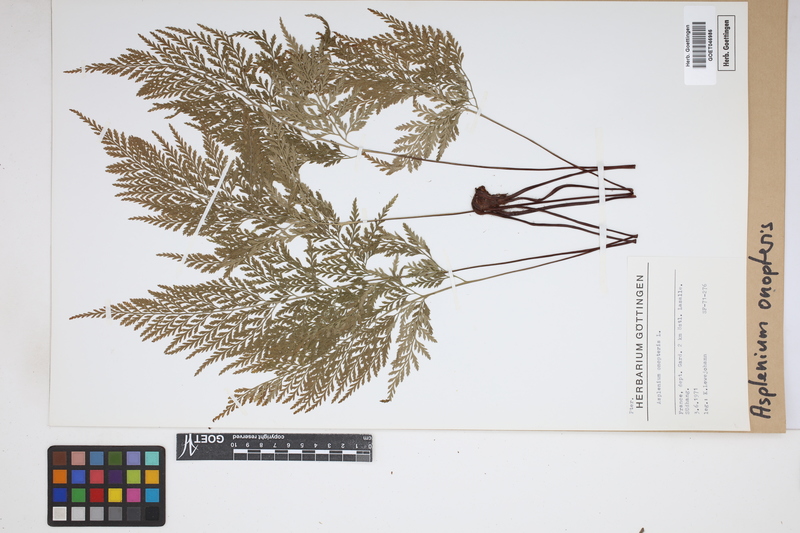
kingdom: Plantae
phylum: Tracheophyta
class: Polypodiopsida
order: Polypodiales
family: Aspleniaceae
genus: Asplenium
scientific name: Asplenium onopteris
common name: Irish spleenwort
